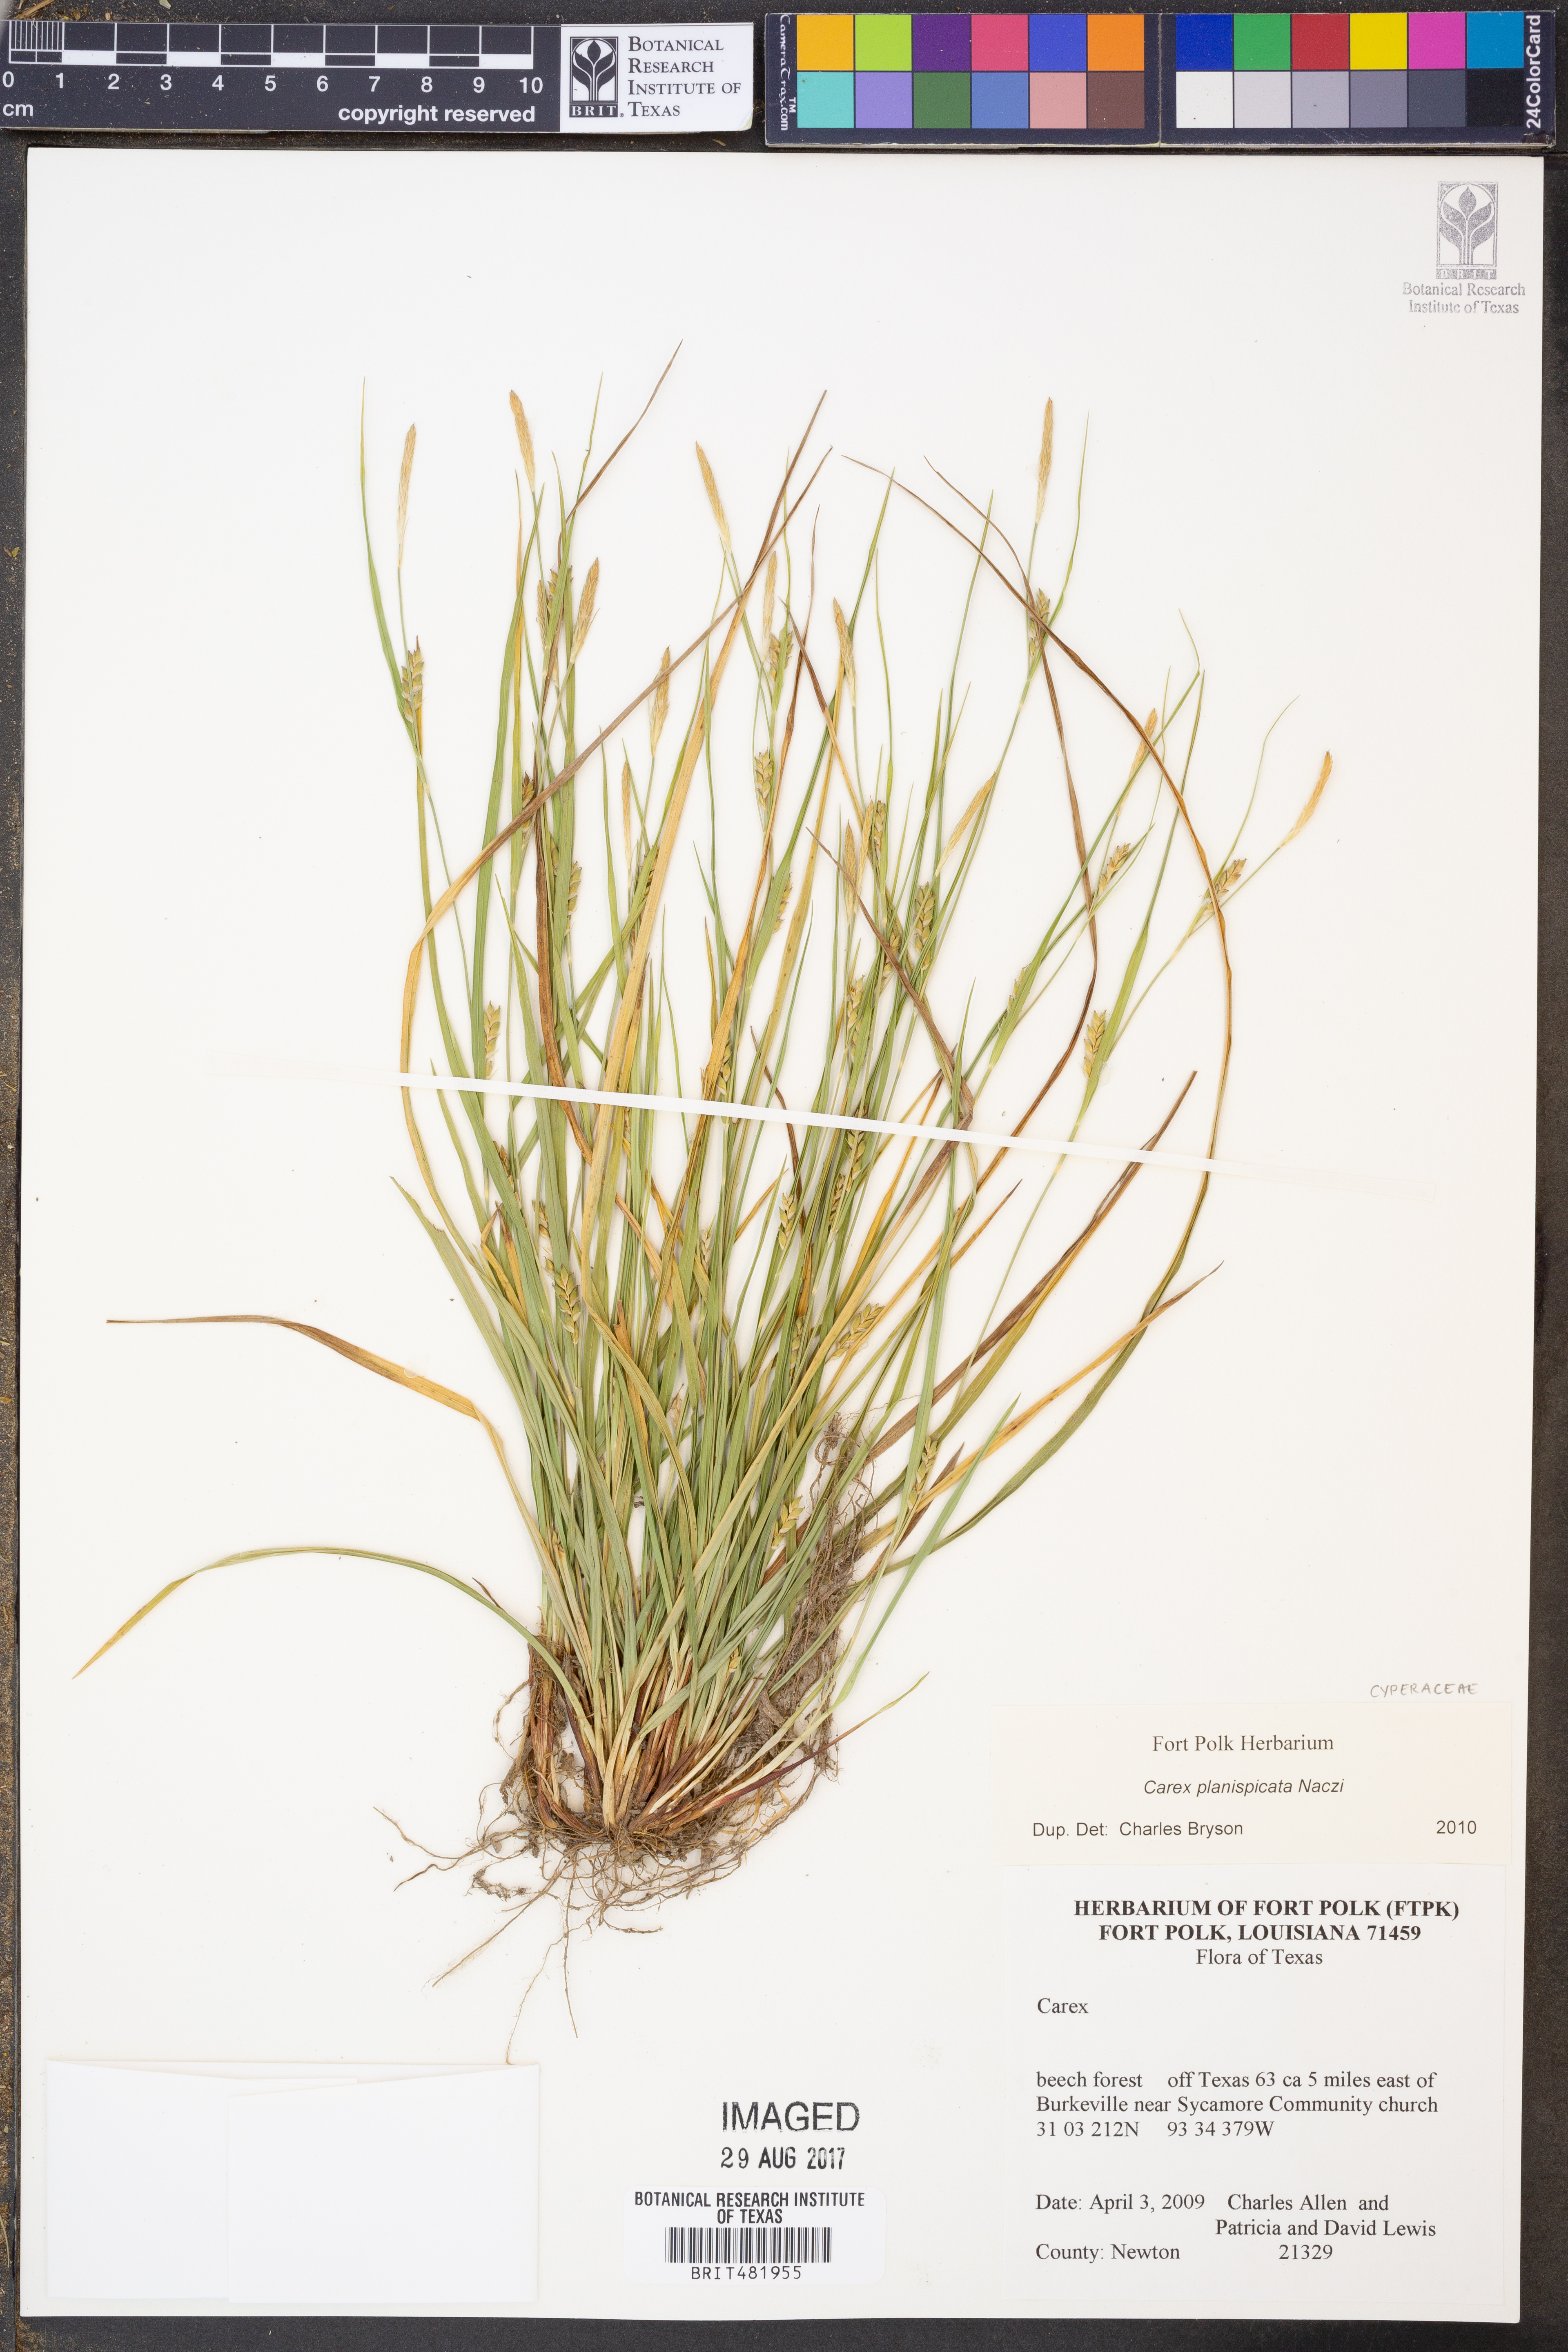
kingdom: Plantae
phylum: Tracheophyta
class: Liliopsida
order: Poales
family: Cyperaceae
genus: Carex
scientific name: Carex planispicata
